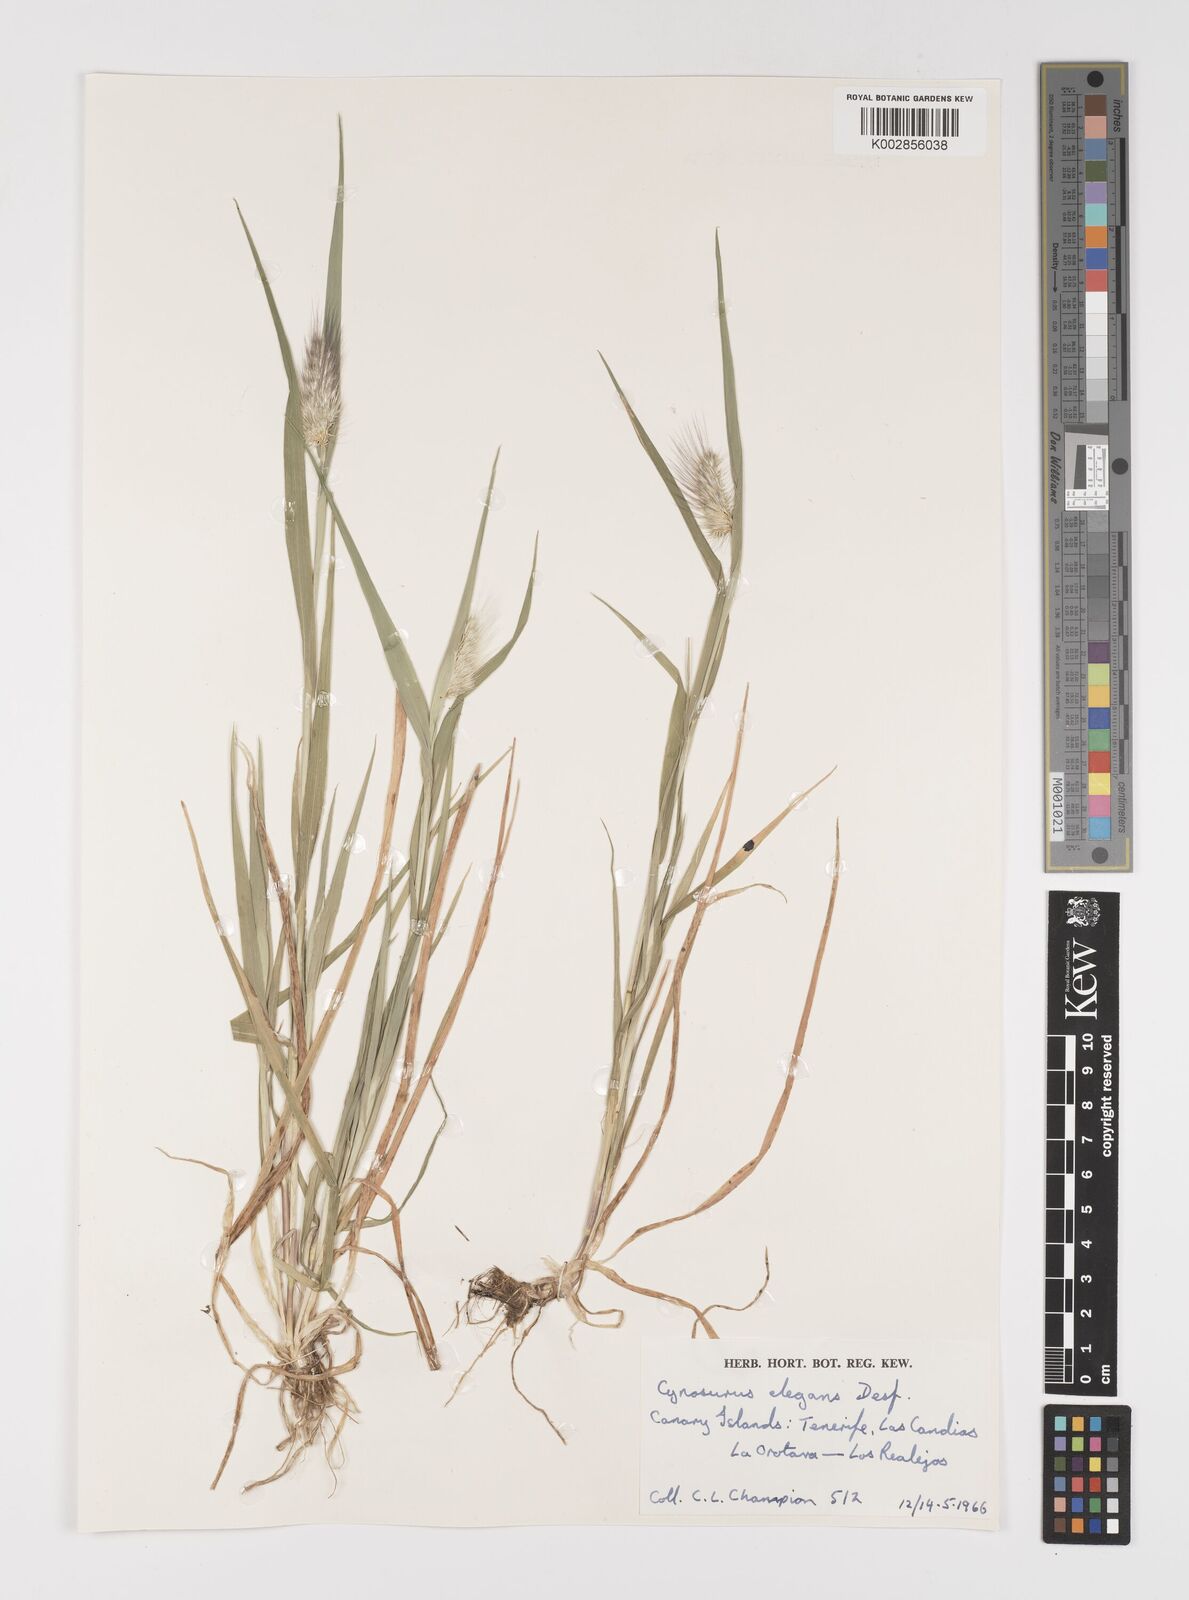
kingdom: Plantae
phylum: Tracheophyta
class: Liliopsida
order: Poales
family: Poaceae
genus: Cynosurus
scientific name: Cynosurus echinatus
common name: Rough dog's-tail
